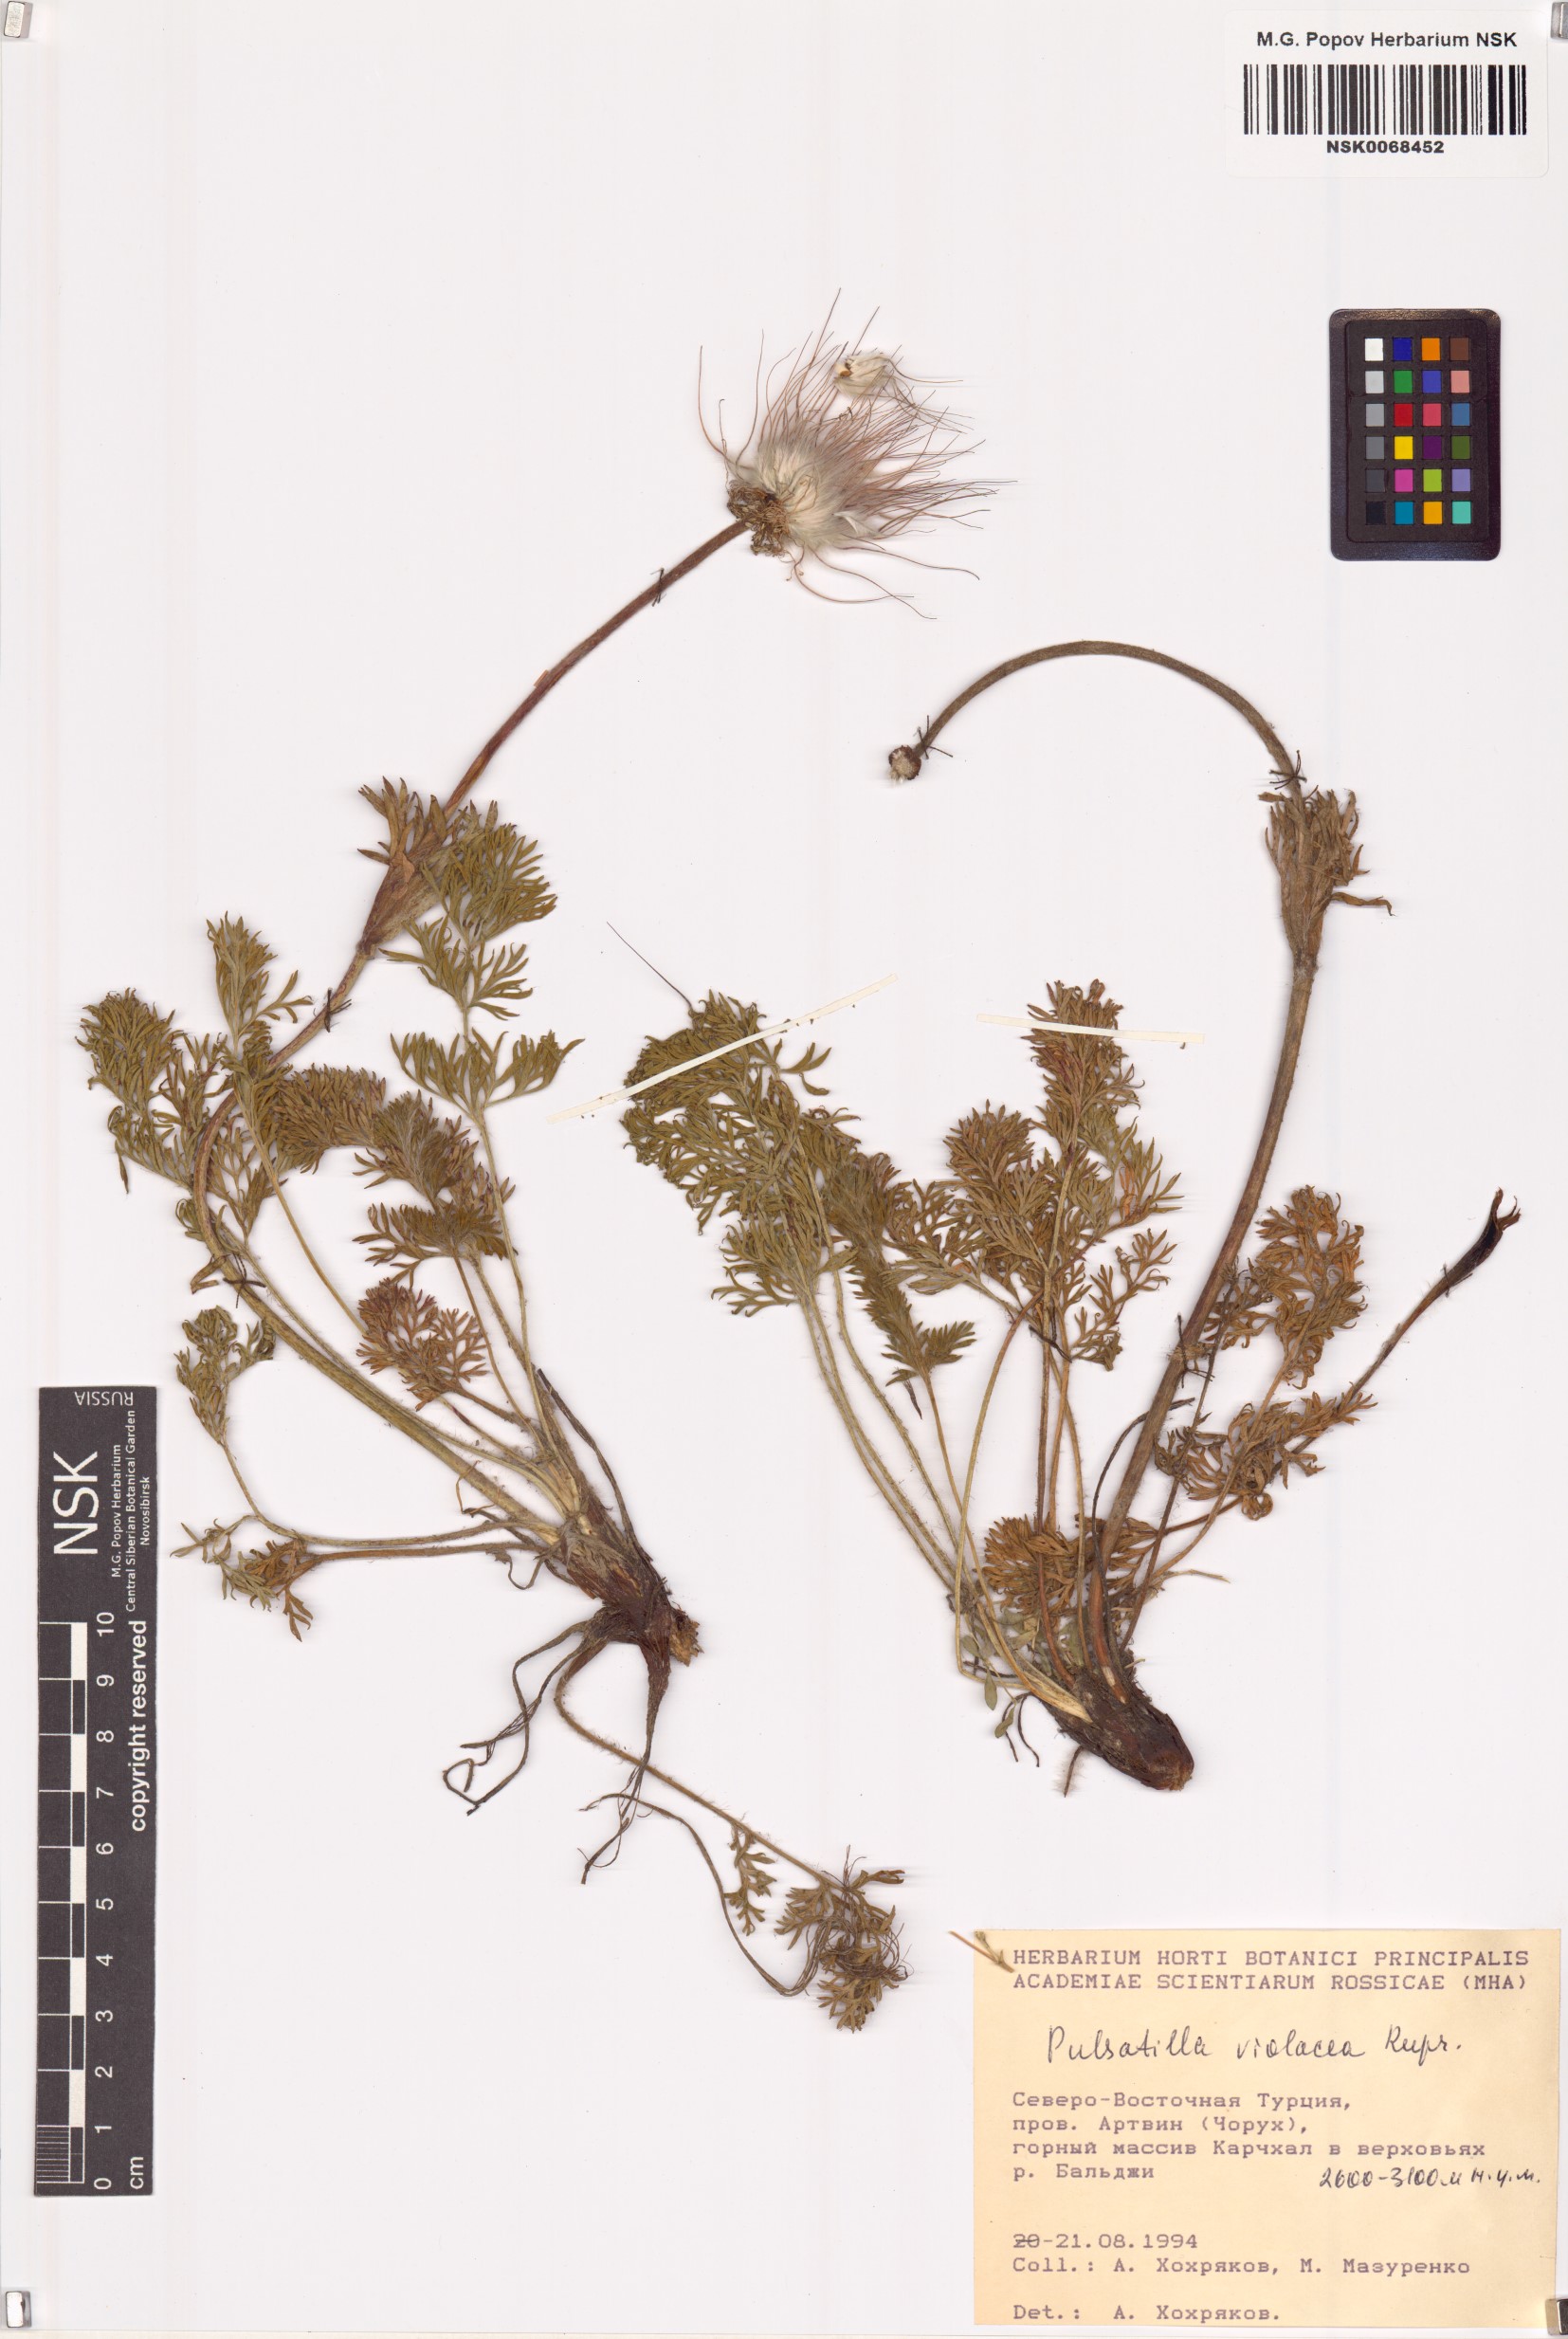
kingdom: Plantae
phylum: Tracheophyta
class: Magnoliopsida
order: Ranunculales
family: Ranunculaceae
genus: Pulsatilla
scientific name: Pulsatilla violacea
